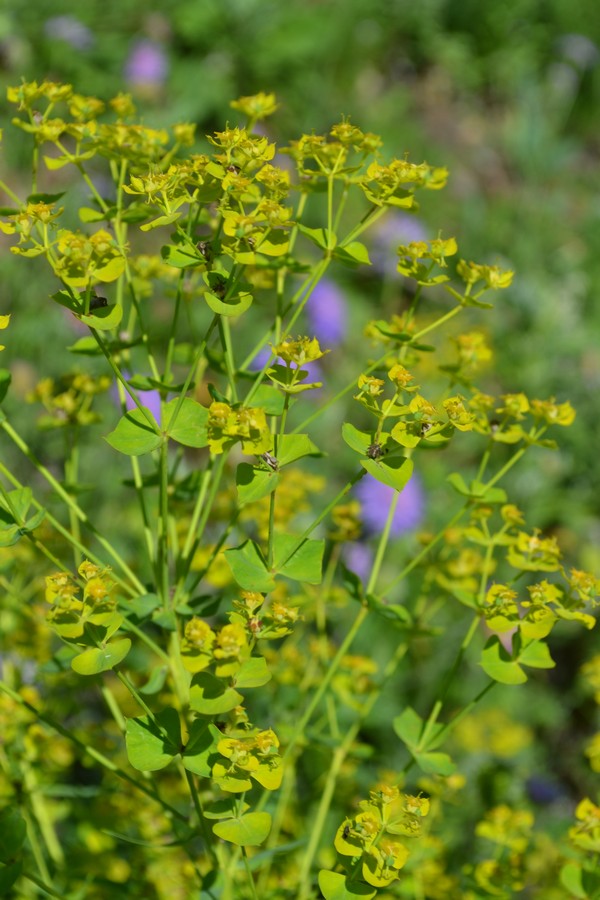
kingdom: Plantae
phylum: Tracheophyta
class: Magnoliopsida
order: Malpighiales
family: Euphorbiaceae
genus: Euphorbia
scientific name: Euphorbia virgata
